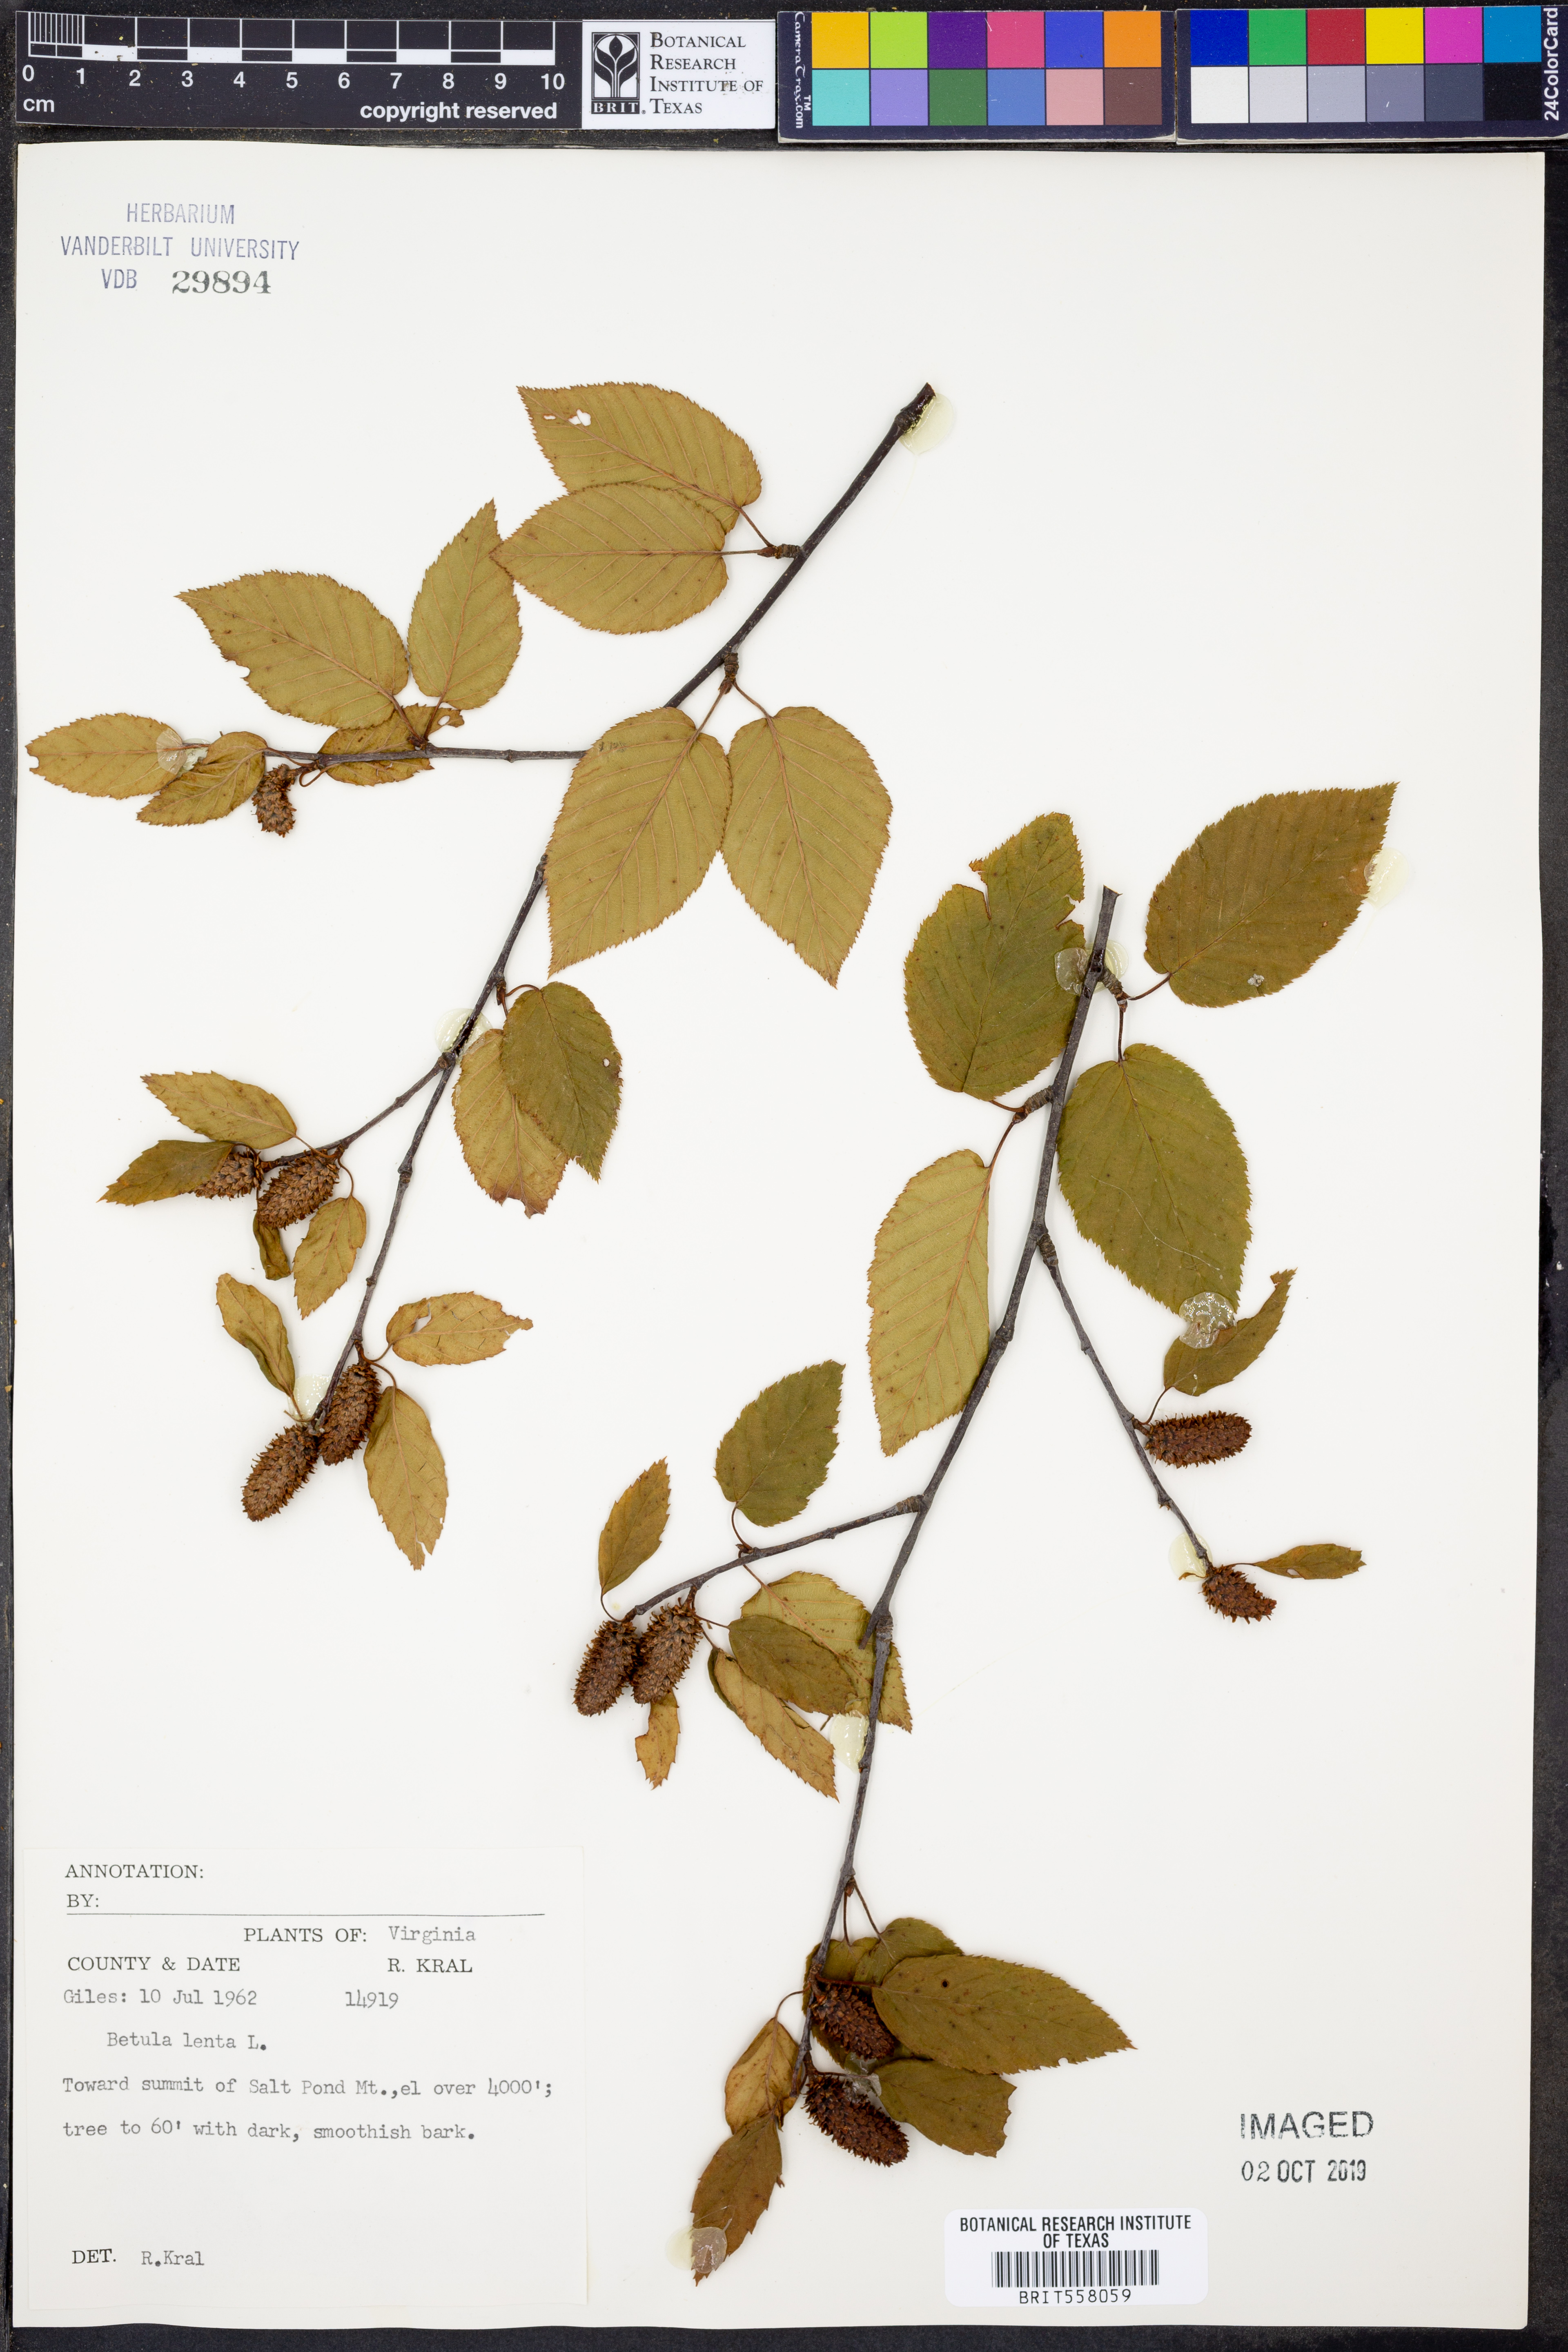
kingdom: Plantae
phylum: Tracheophyta
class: Magnoliopsida
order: Fagales
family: Betulaceae
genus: Betula
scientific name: Betula lenta
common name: Black birch
